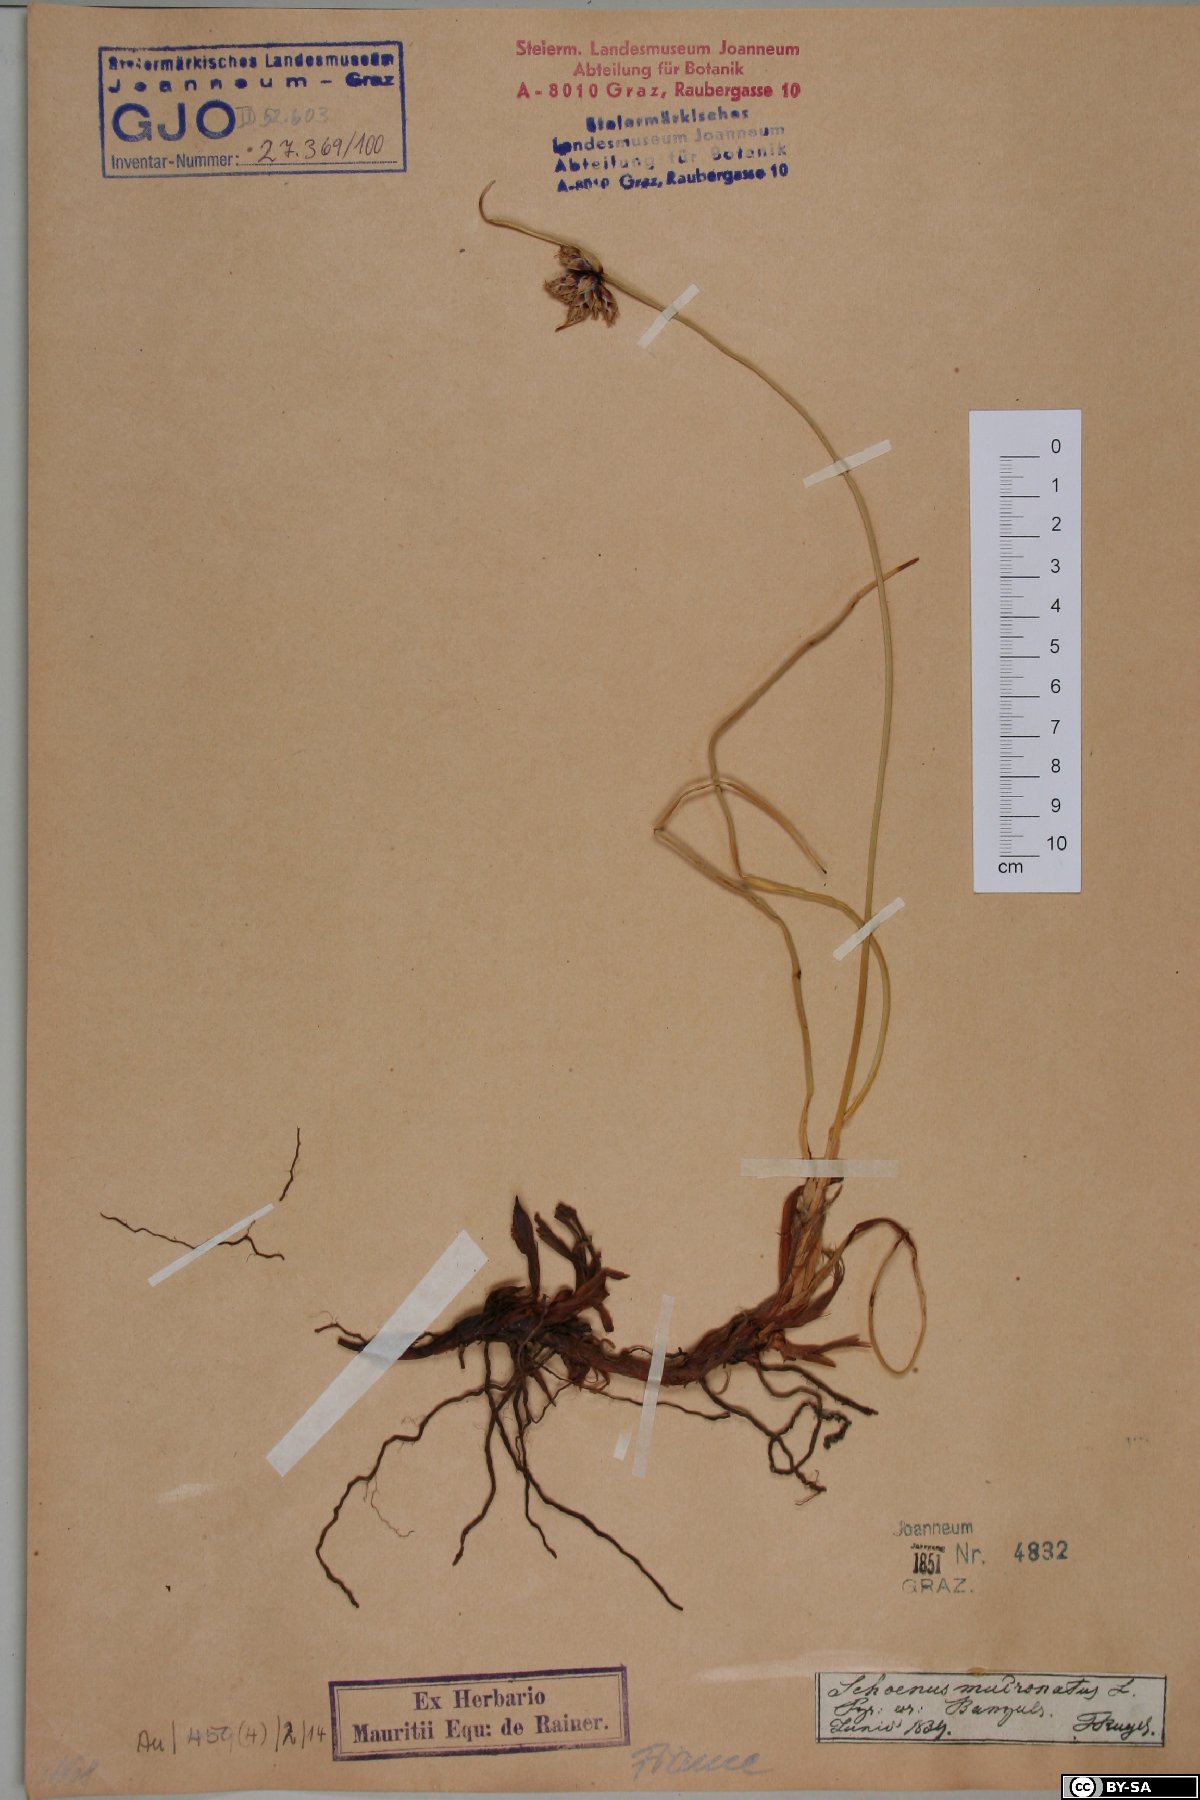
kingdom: Plantae
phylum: Tracheophyta
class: Liliopsida
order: Poales
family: Cyperaceae
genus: Cyperus
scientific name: Cyperus capitatus
